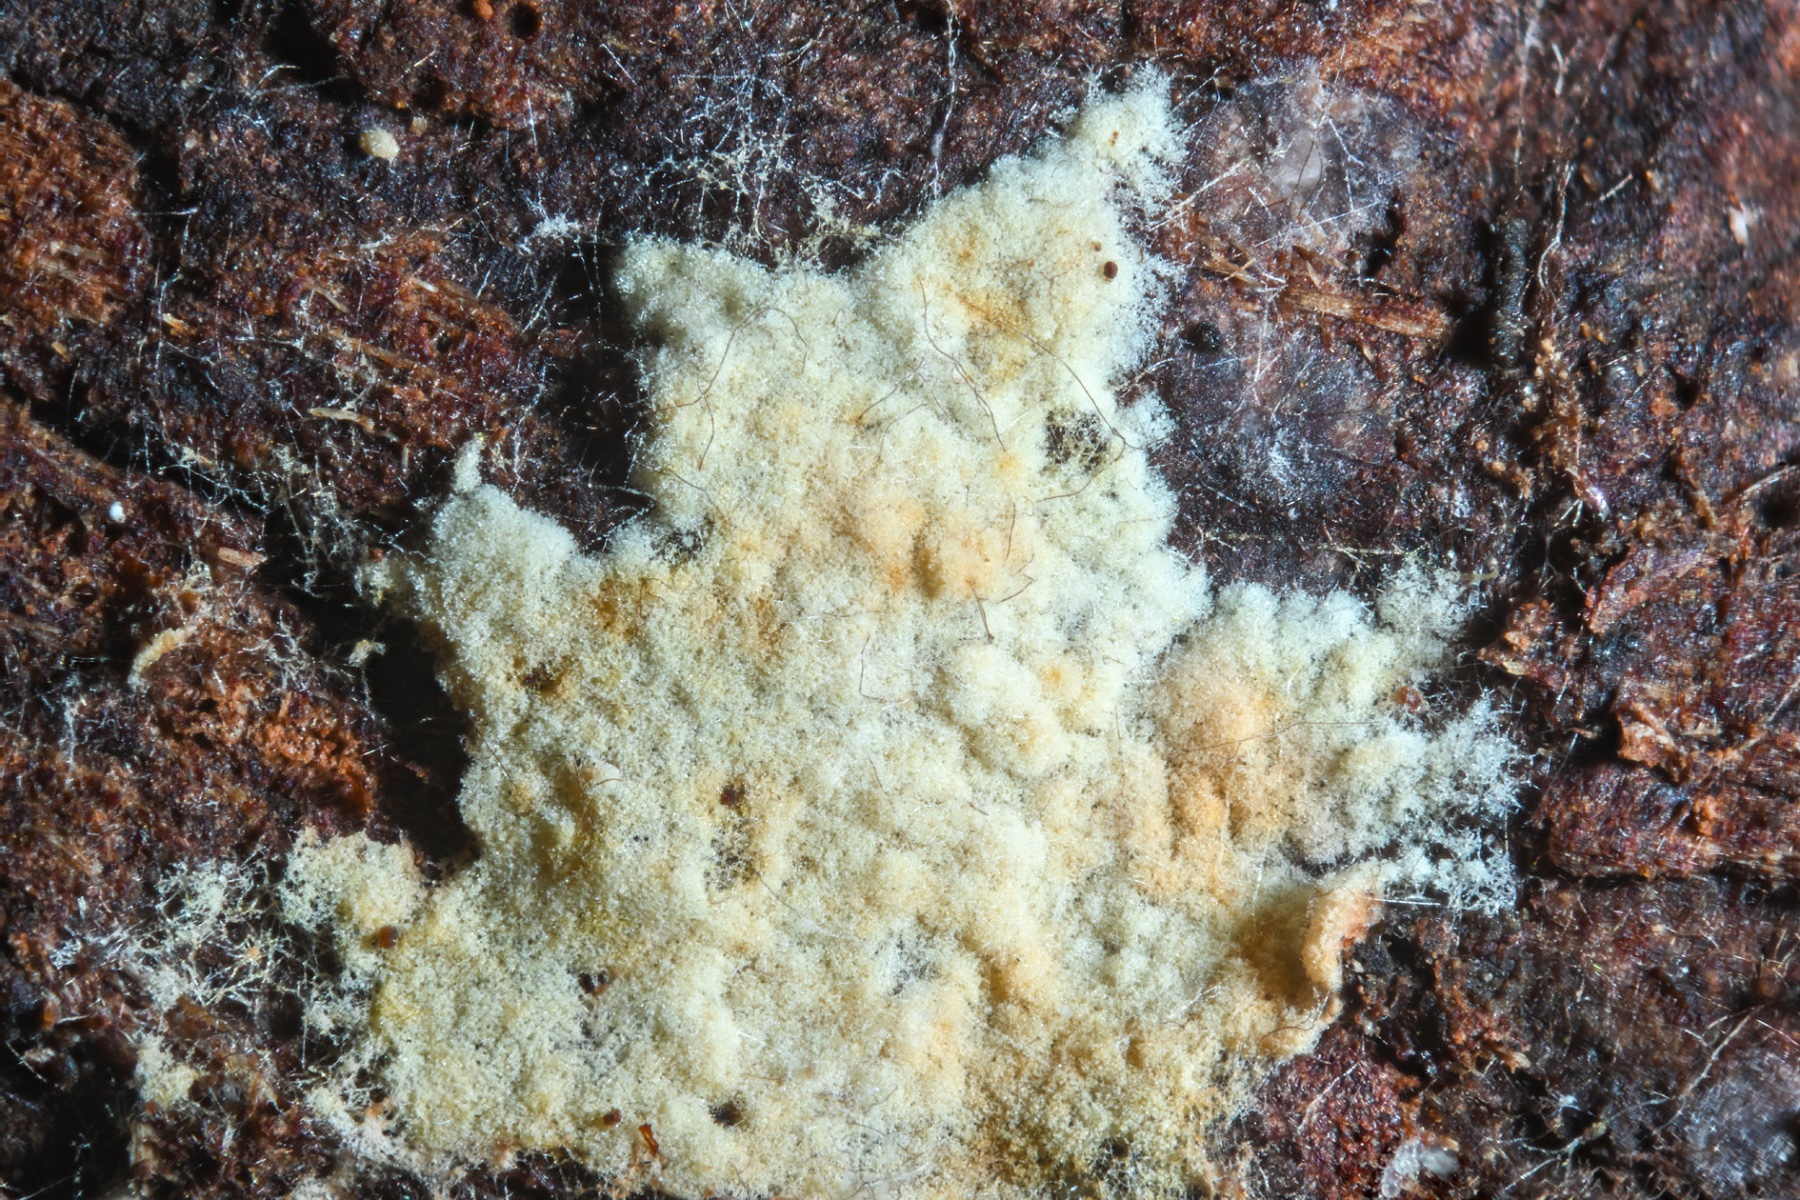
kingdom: Fungi
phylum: Basidiomycota
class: Agaricomycetes
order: Agaricales
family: Stephanosporaceae
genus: Lindtneria
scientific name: Lindtneria chordulata
